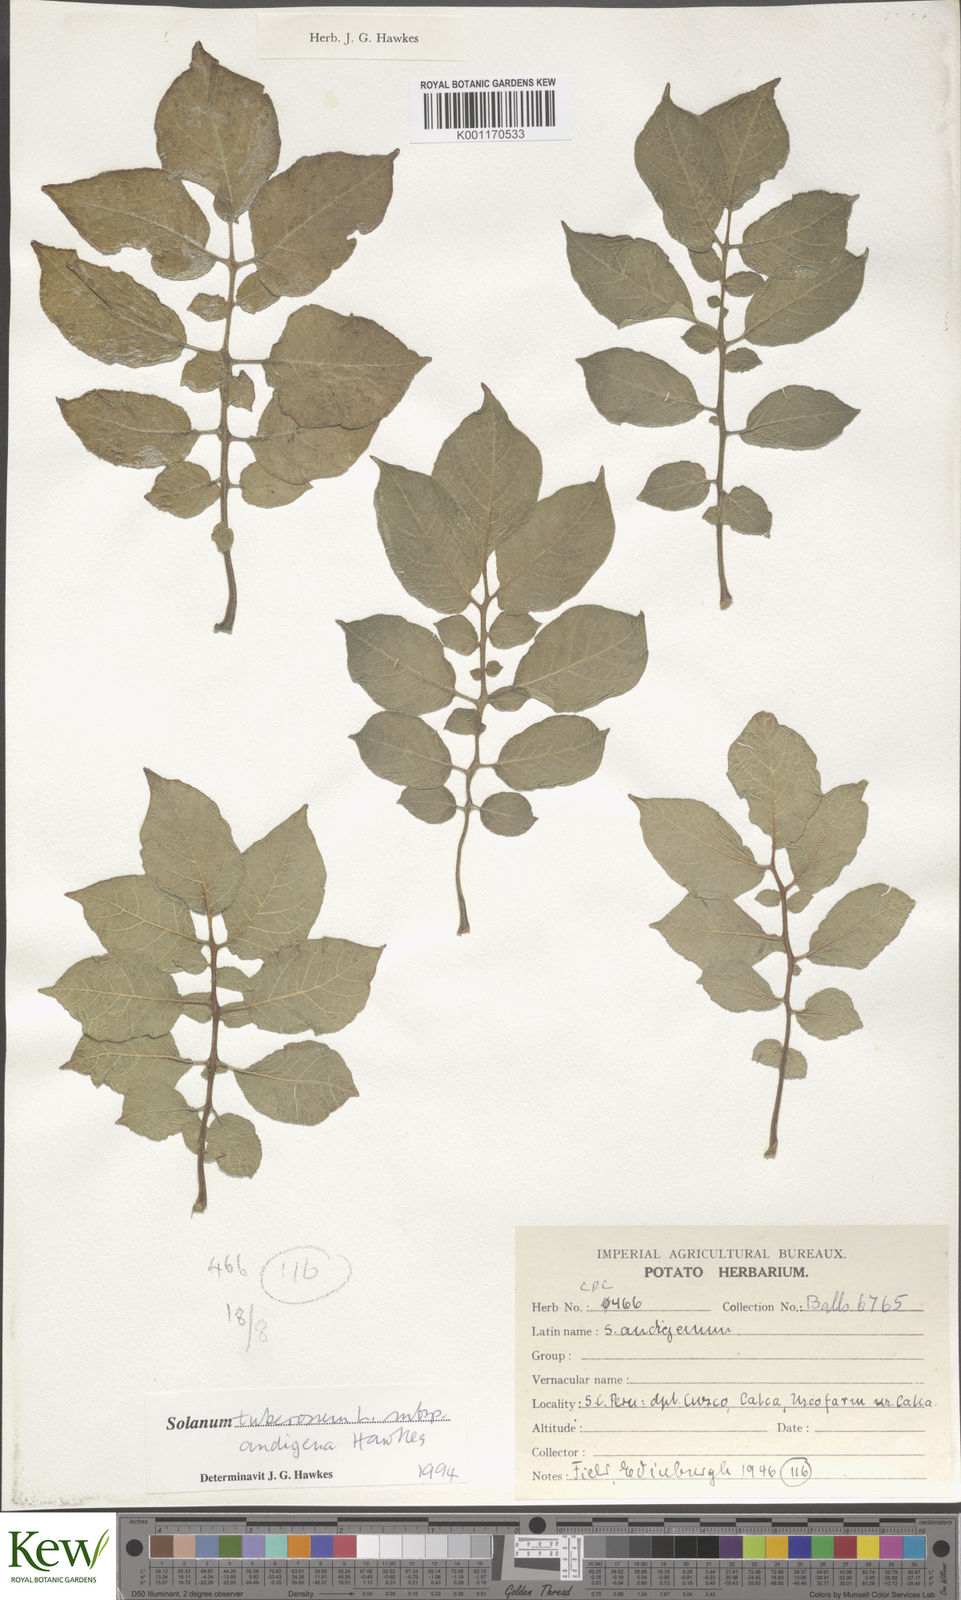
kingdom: Plantae
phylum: Tracheophyta
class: Magnoliopsida
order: Solanales
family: Solanaceae
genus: Solanum
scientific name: Solanum tuberosum
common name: Potato
